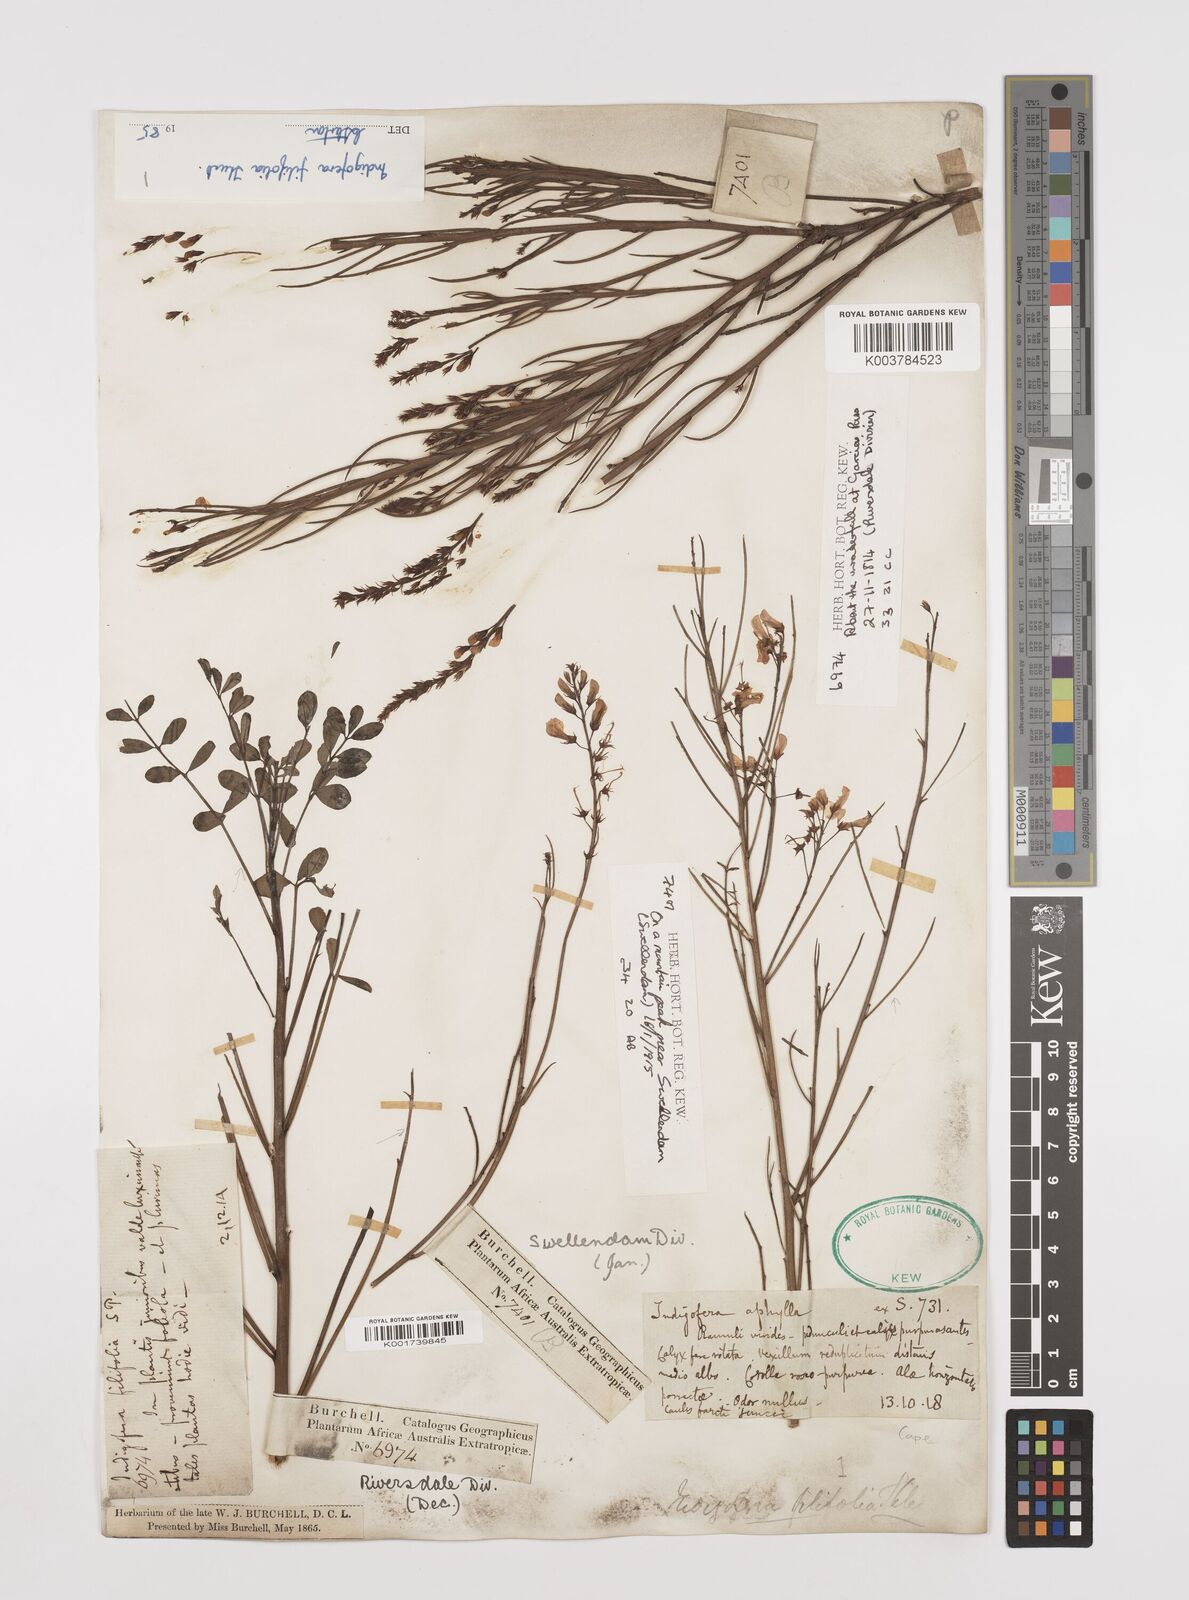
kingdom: Plantae
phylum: Tracheophyta
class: Magnoliopsida
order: Fabales
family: Fabaceae
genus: Indigofera
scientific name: Indigofera filifolia
